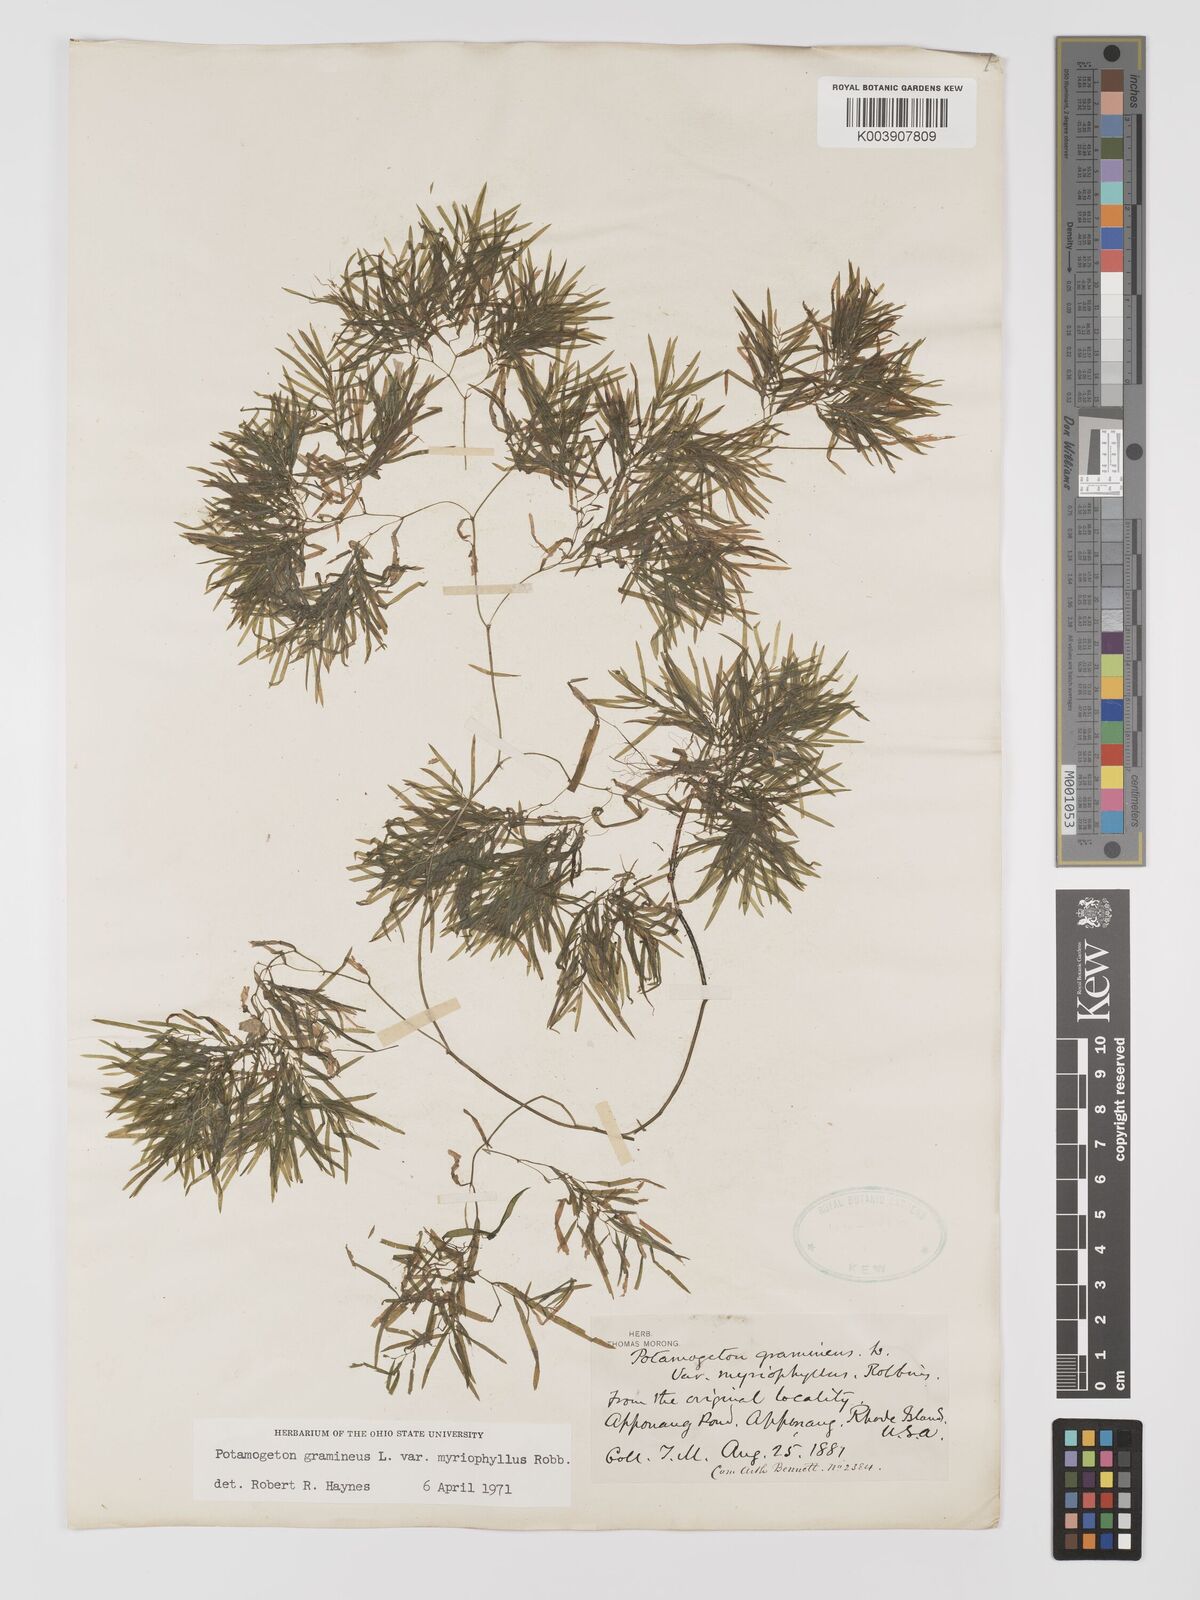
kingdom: Plantae
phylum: Tracheophyta
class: Liliopsida
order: Alismatales
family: Potamogetonaceae
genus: Potamogeton
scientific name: Potamogeton gramineus
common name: Various-leaved pondweed
